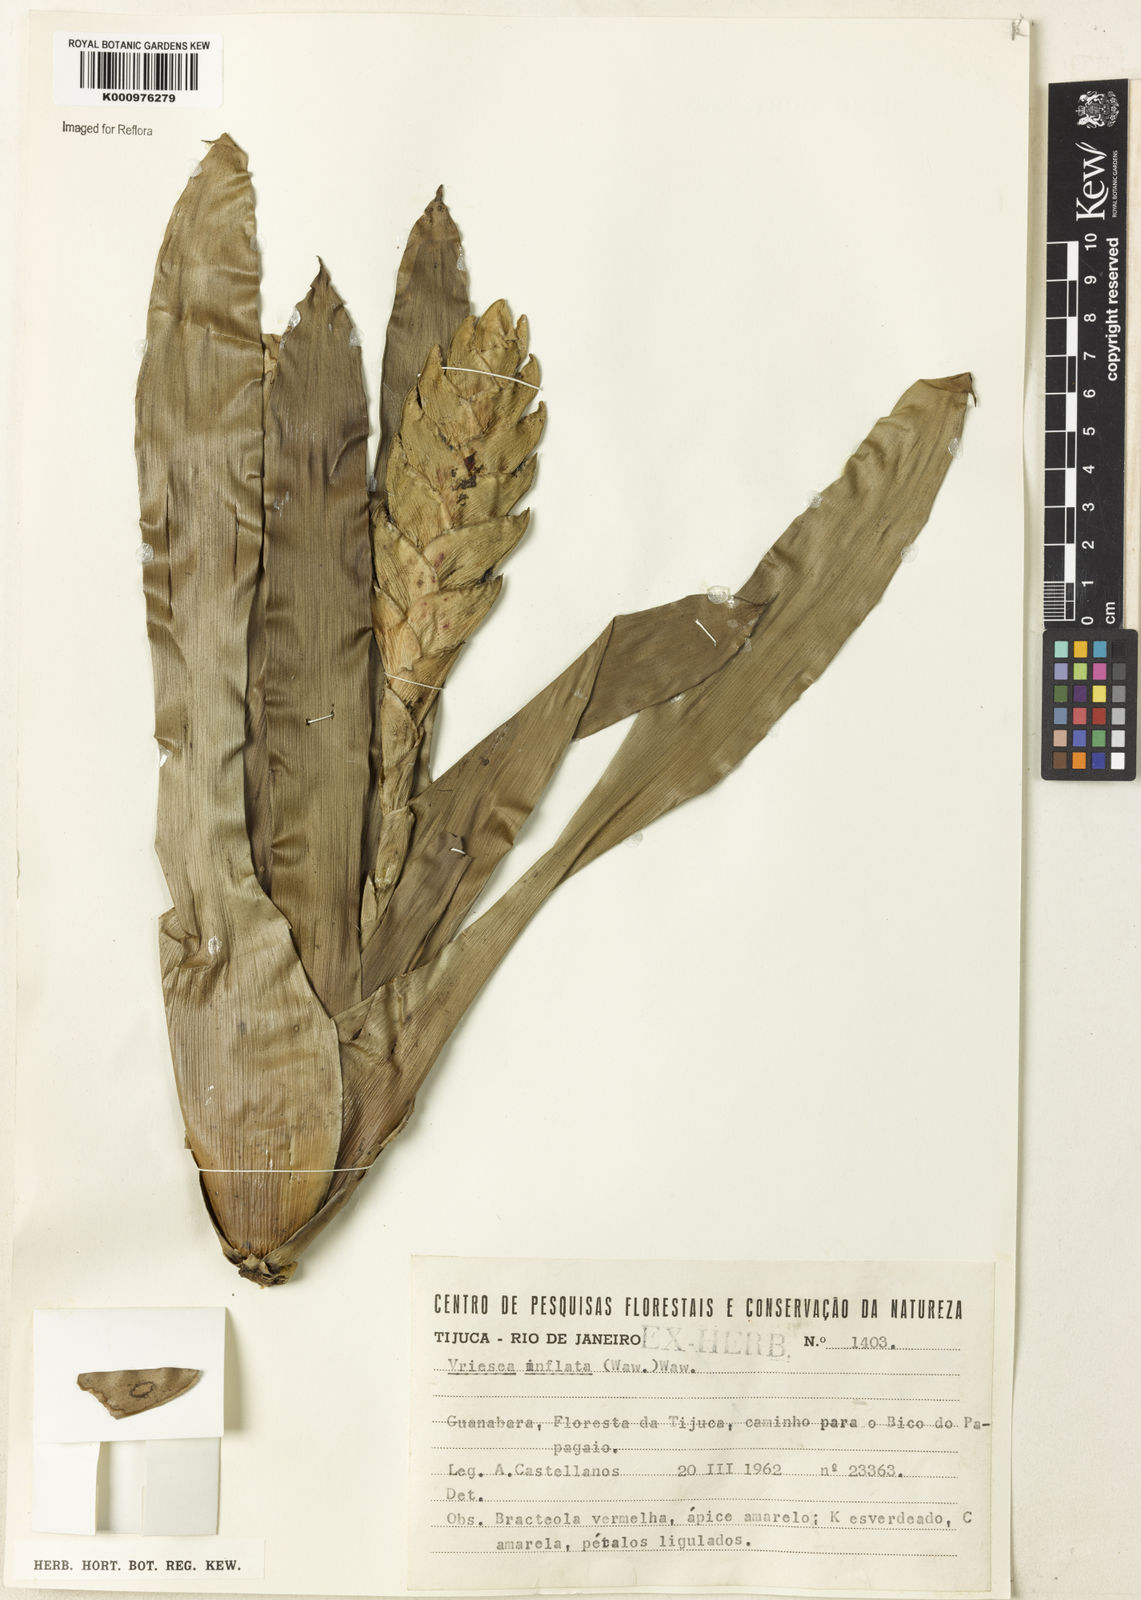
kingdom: Plantae
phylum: Tracheophyta
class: Liliopsida
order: Poales
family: Bromeliaceae
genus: Vriesea
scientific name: Vriesea inflata
